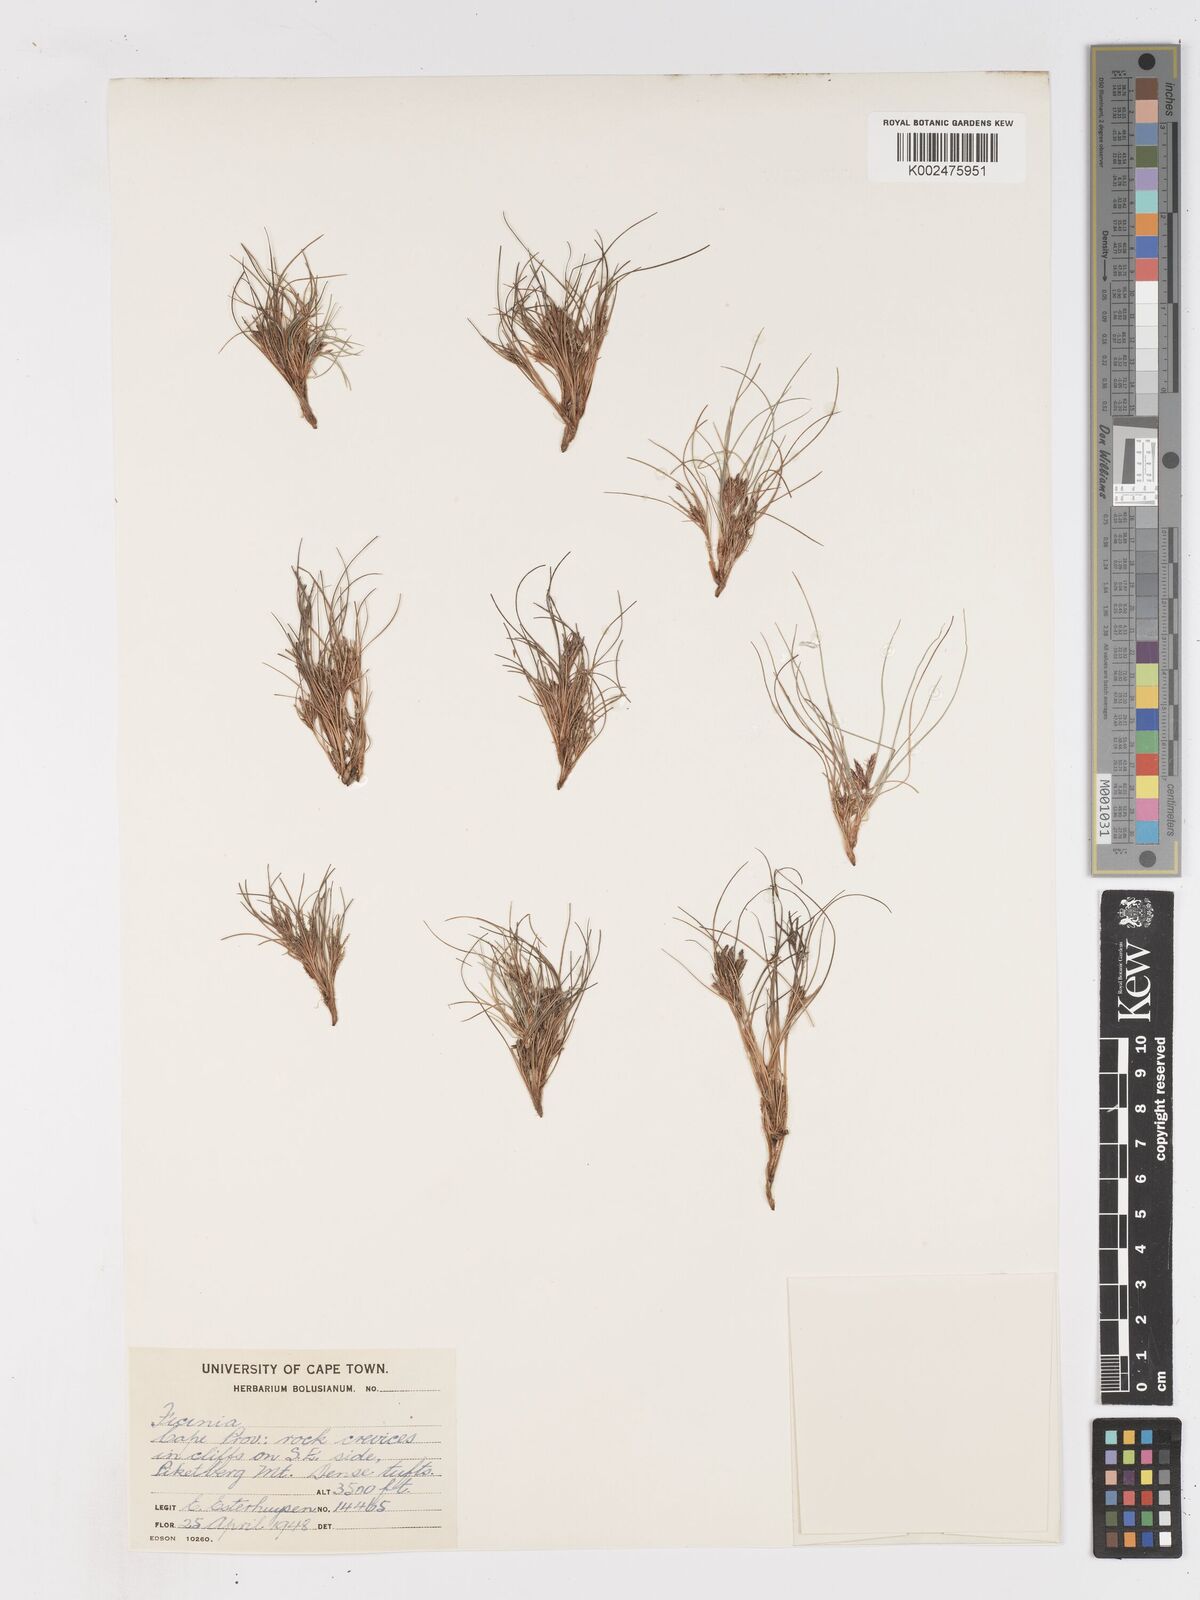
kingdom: Plantae
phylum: Tracheophyta
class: Liliopsida
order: Poales
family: Cyperaceae
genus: Ficinia
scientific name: Ficinia esterhuyseniae
